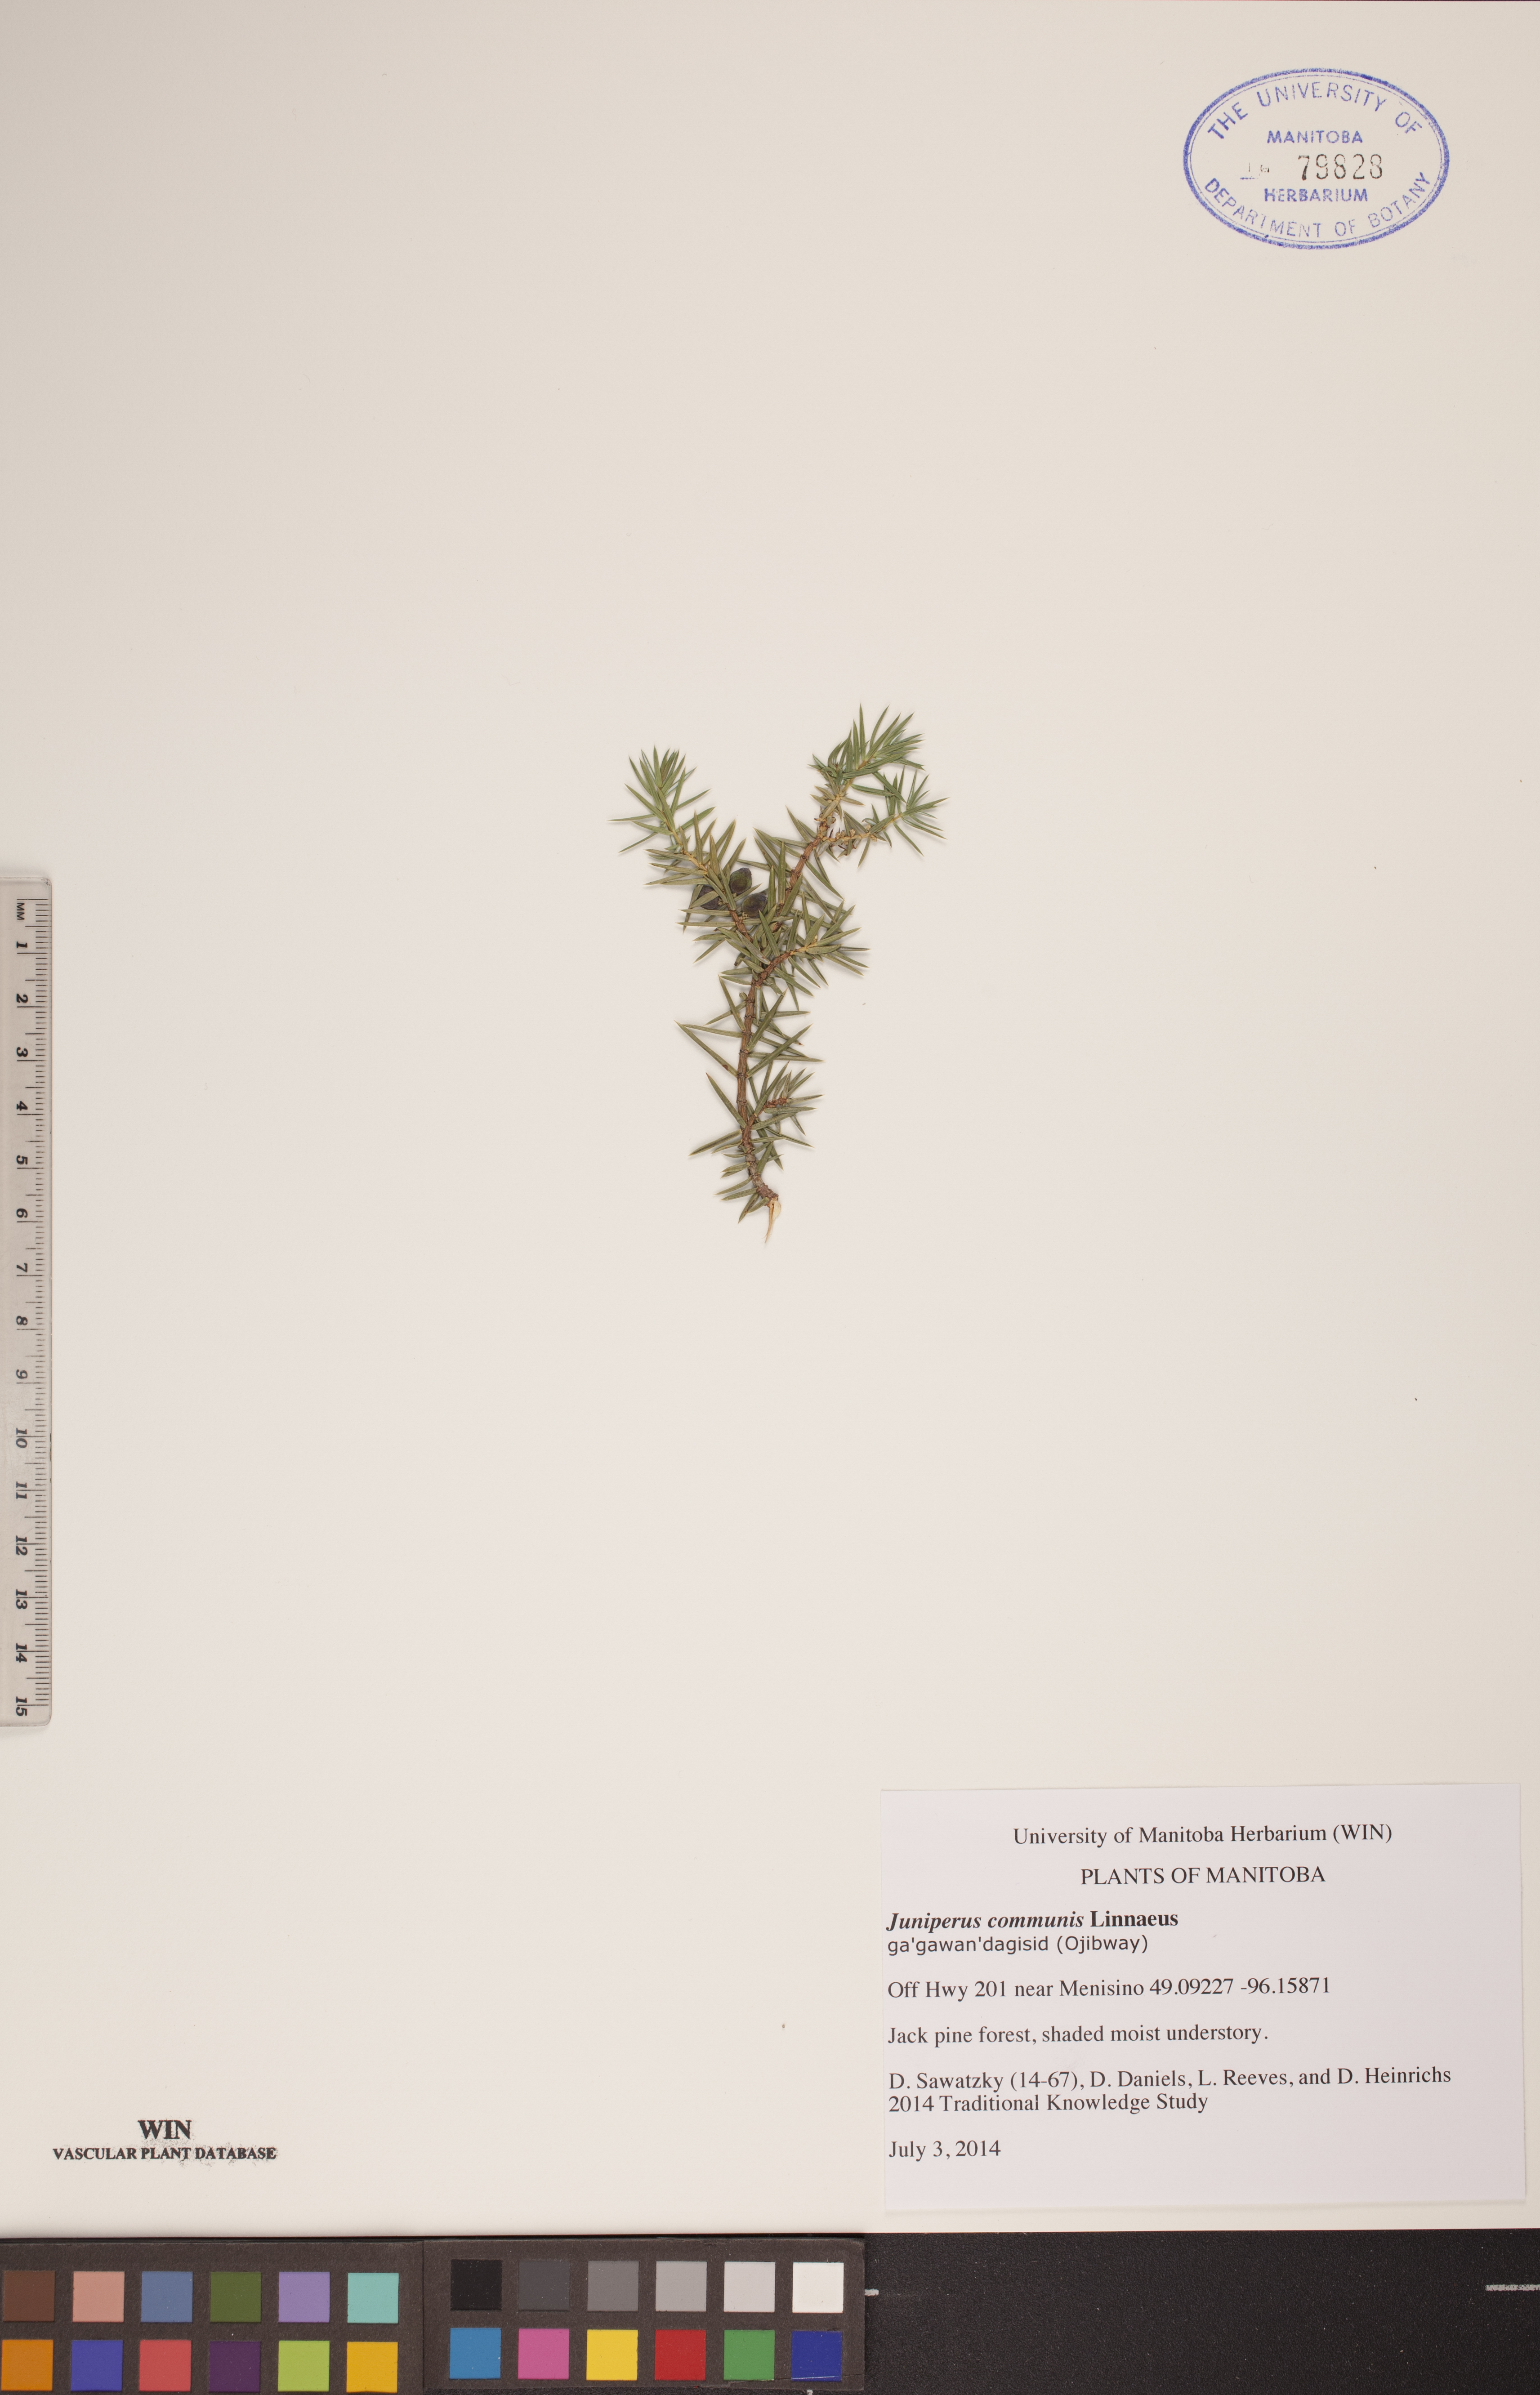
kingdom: Plantae
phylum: Tracheophyta
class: Pinopsida
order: Pinales
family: Cupressaceae
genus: Juniperus
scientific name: Juniperus communis
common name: Common juniper
